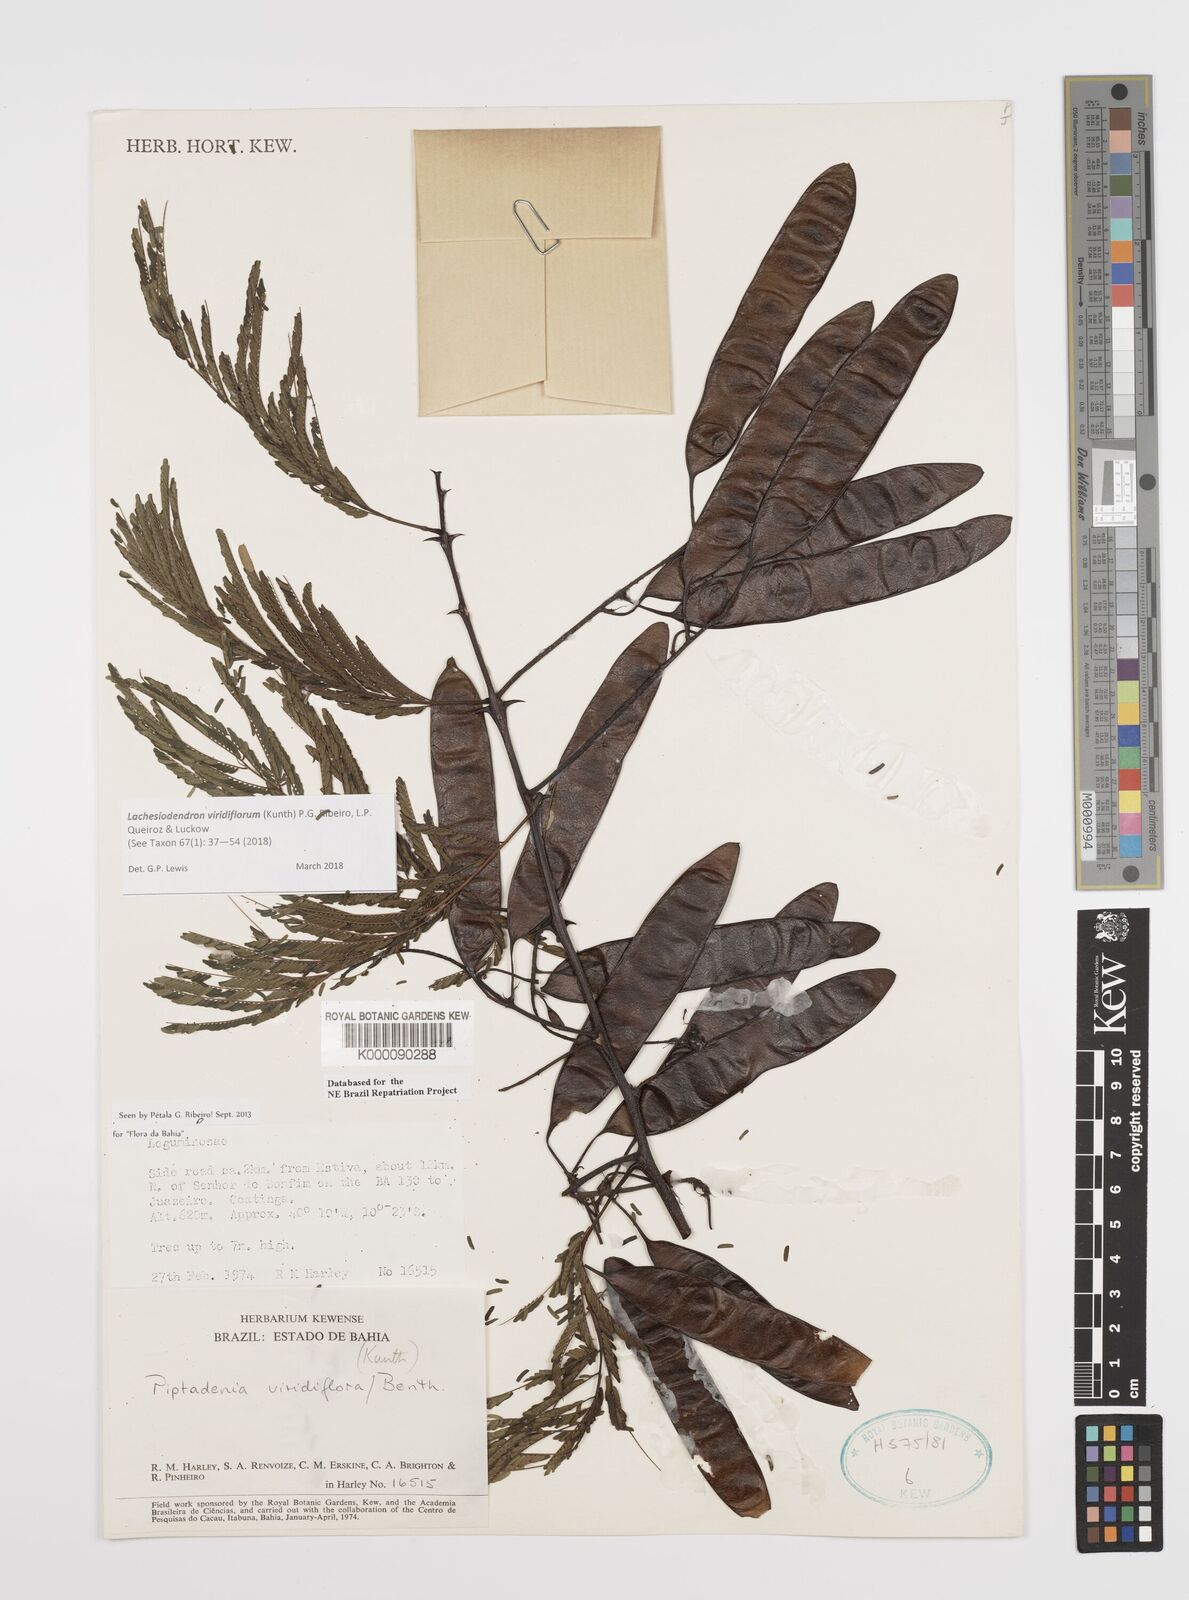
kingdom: Plantae
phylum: Tracheophyta
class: Magnoliopsida
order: Fabales
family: Fabaceae
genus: Lachesiodendron
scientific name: Lachesiodendron viridiflorum
